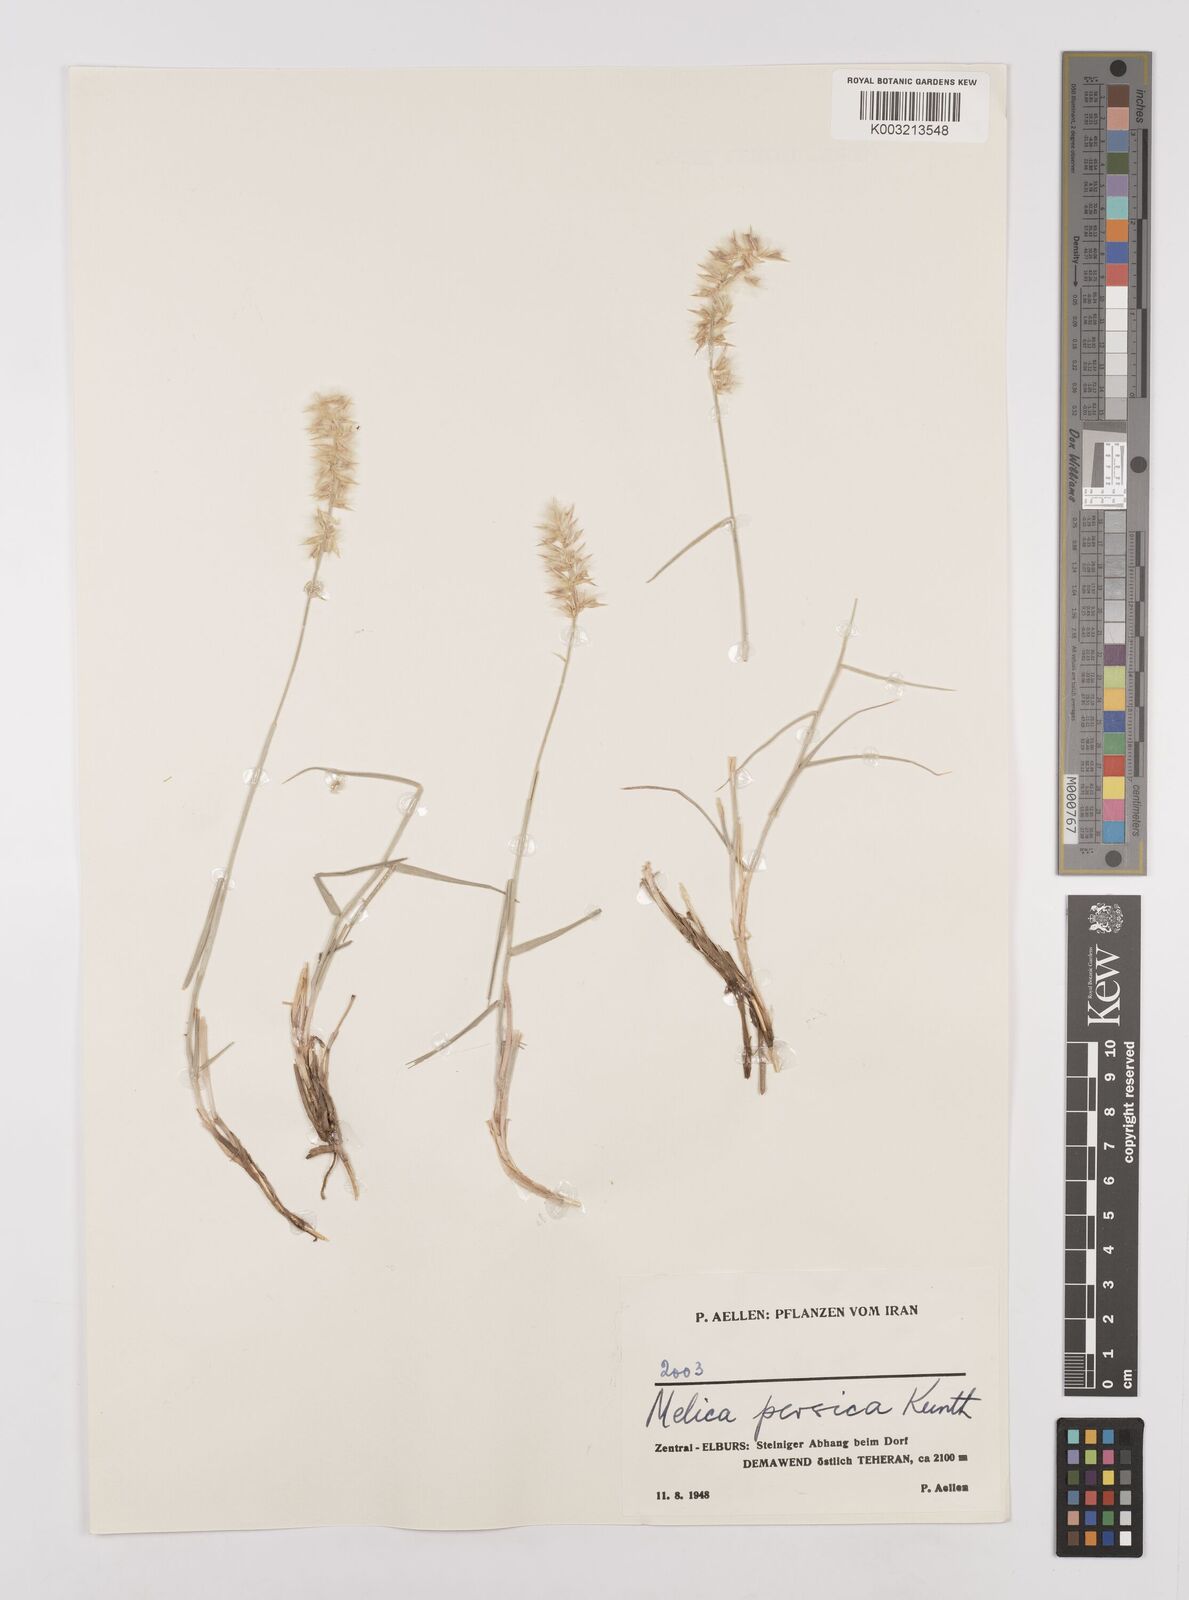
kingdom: Plantae
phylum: Tracheophyta
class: Liliopsida
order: Poales
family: Poaceae
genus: Melica
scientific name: Melica persica
